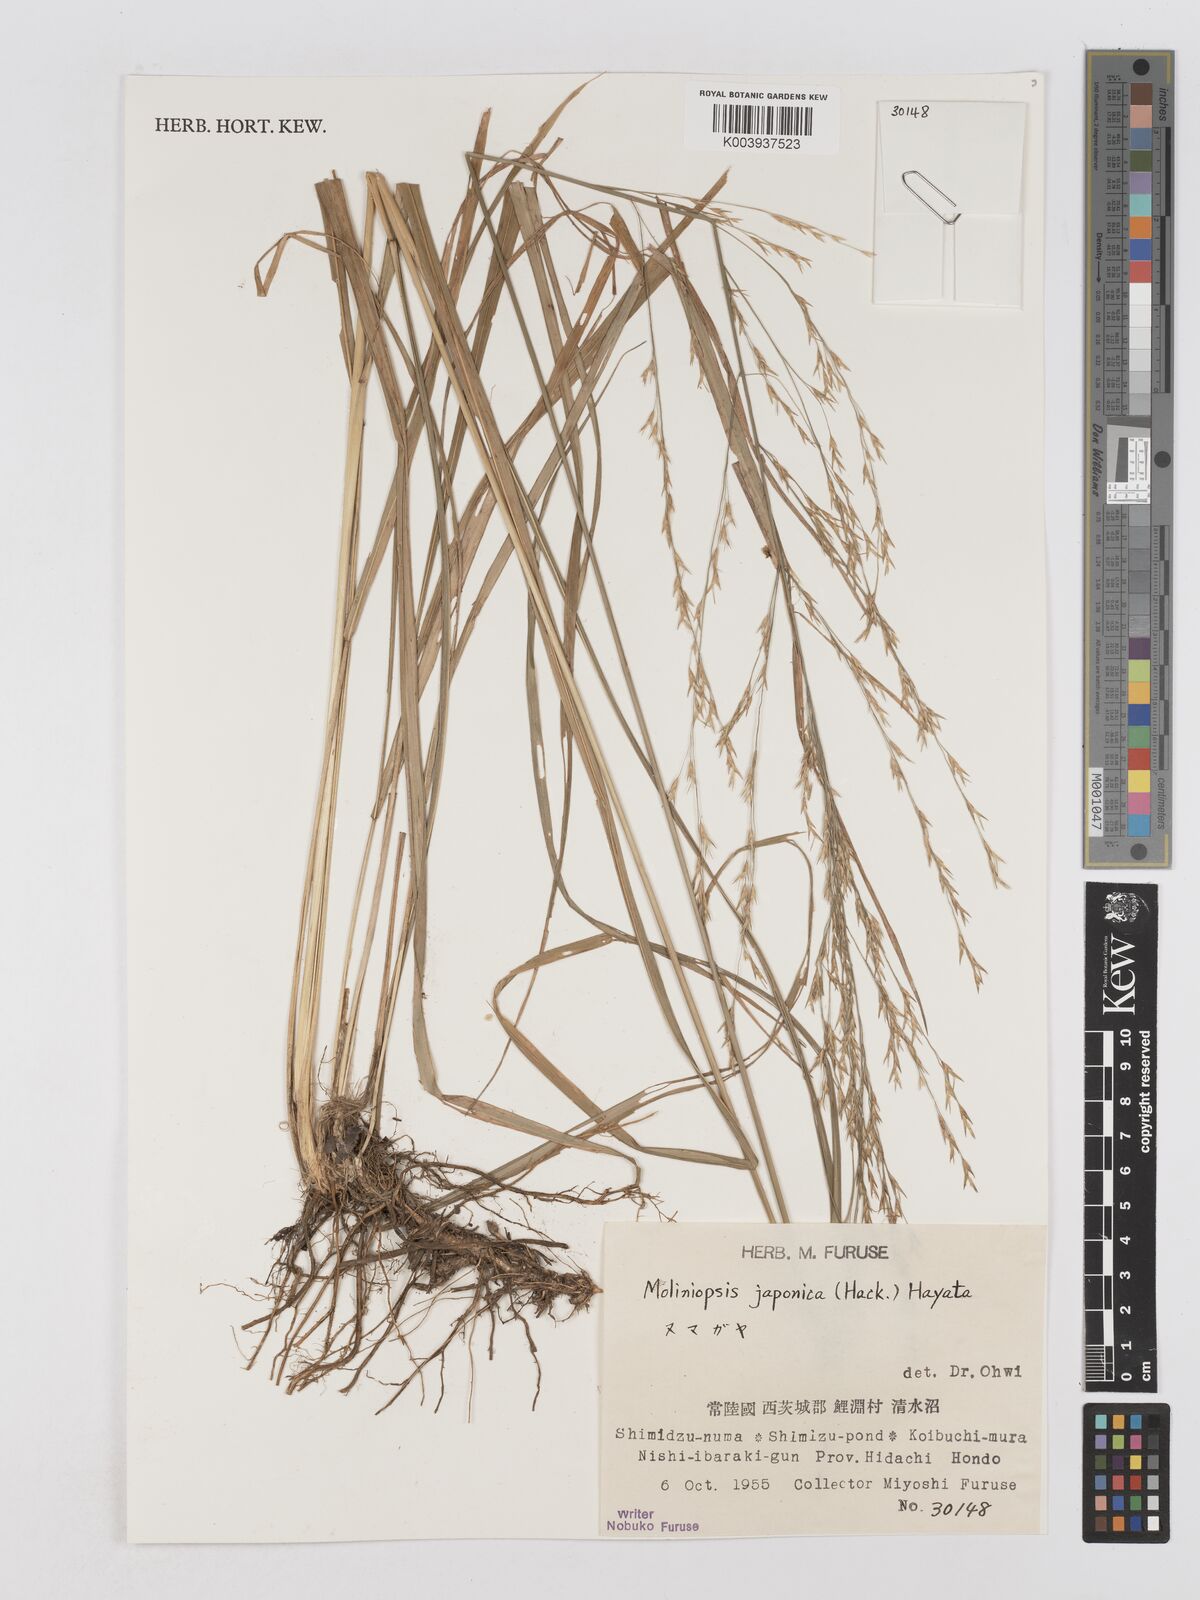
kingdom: Plantae
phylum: Tracheophyta
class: Liliopsida
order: Poales
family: Poaceae
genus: Moliniopsis
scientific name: Moliniopsis japonica
